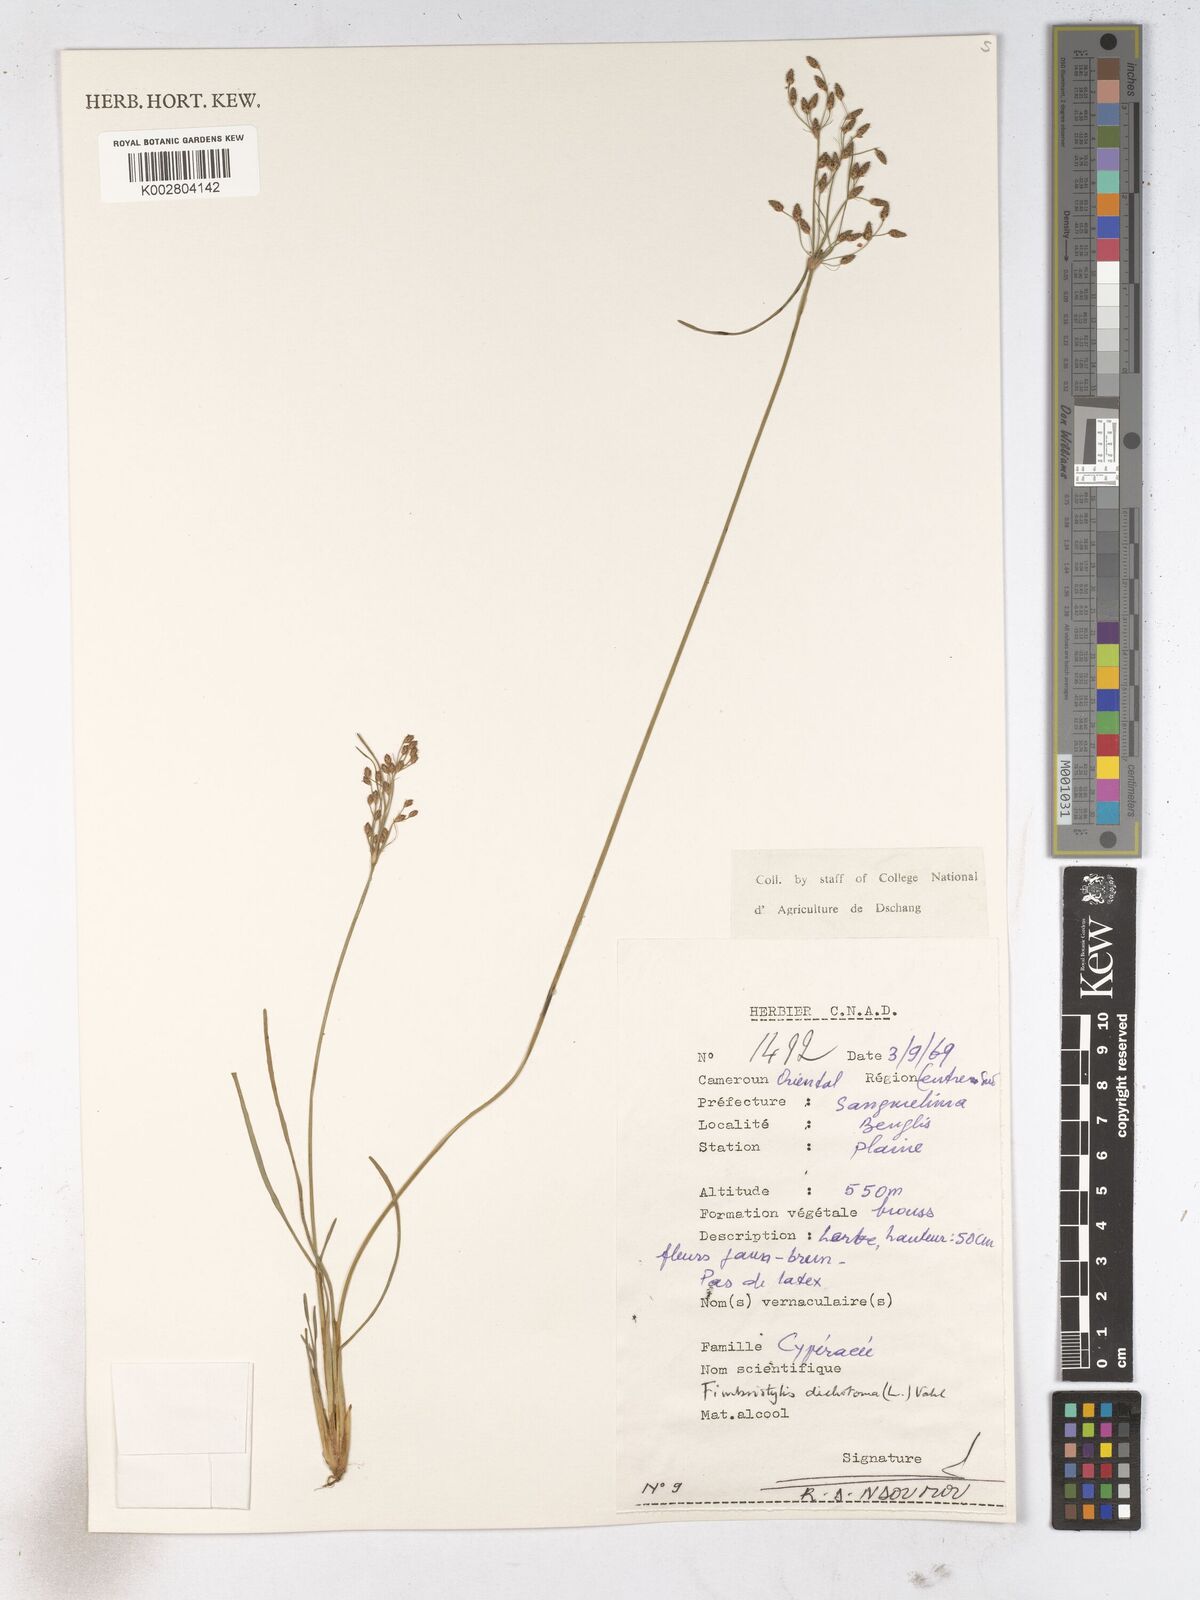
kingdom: Plantae
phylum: Tracheophyta
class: Liliopsida
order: Poales
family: Cyperaceae
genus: Fimbristylis
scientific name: Fimbristylis dichotoma
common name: Forked fimbry
